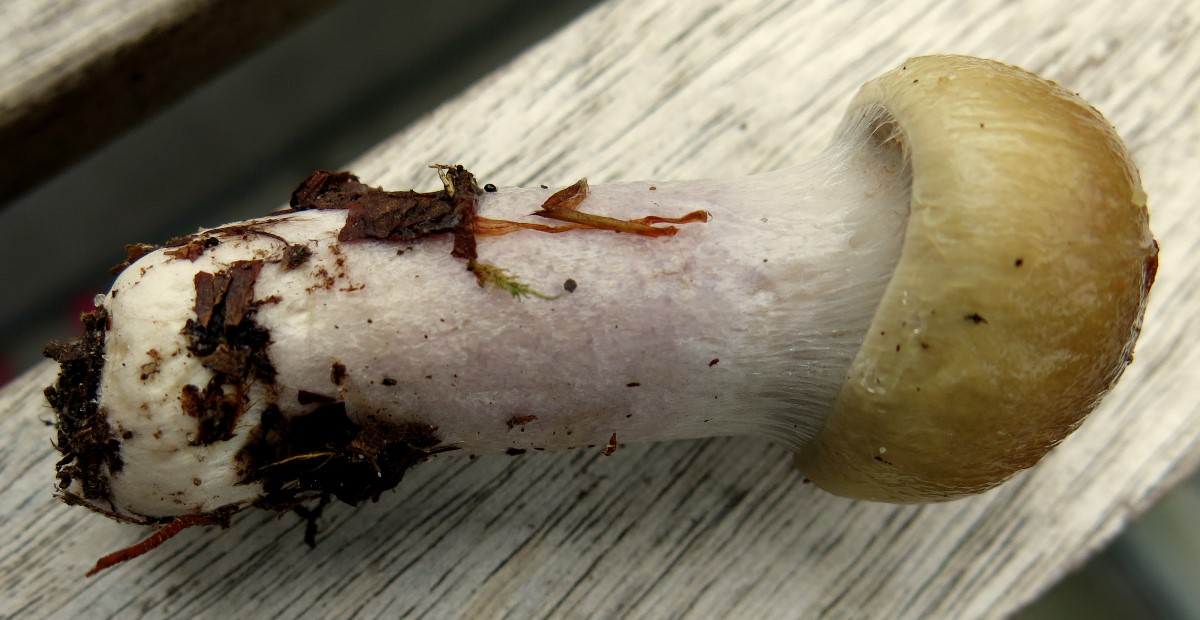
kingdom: Fungi
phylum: Basidiomycota
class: Agaricomycetes
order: Agaricales
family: Cortinariaceae
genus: Cortinarius
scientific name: Cortinarius elatior
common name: høj slørhat
